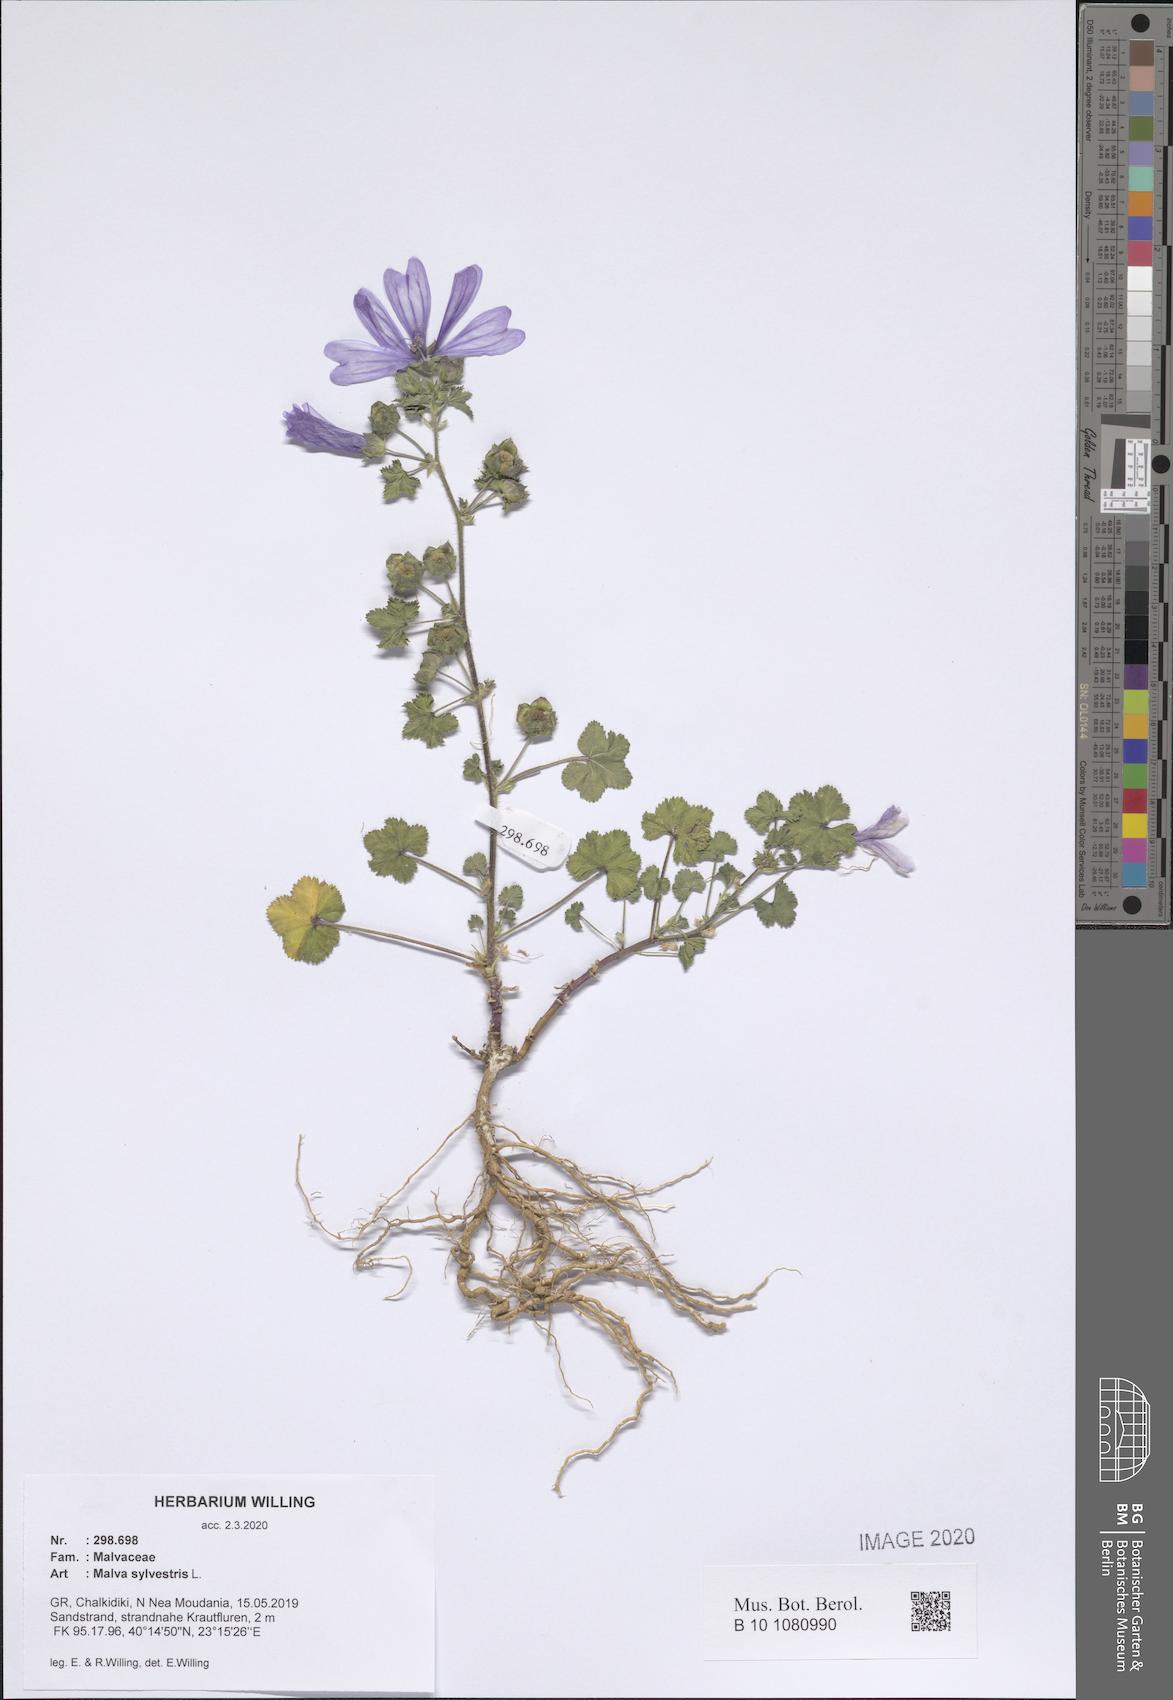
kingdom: Plantae
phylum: Tracheophyta
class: Magnoliopsida
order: Malvales
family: Malvaceae
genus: Malva
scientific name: Malva sylvestris
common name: Common mallow
